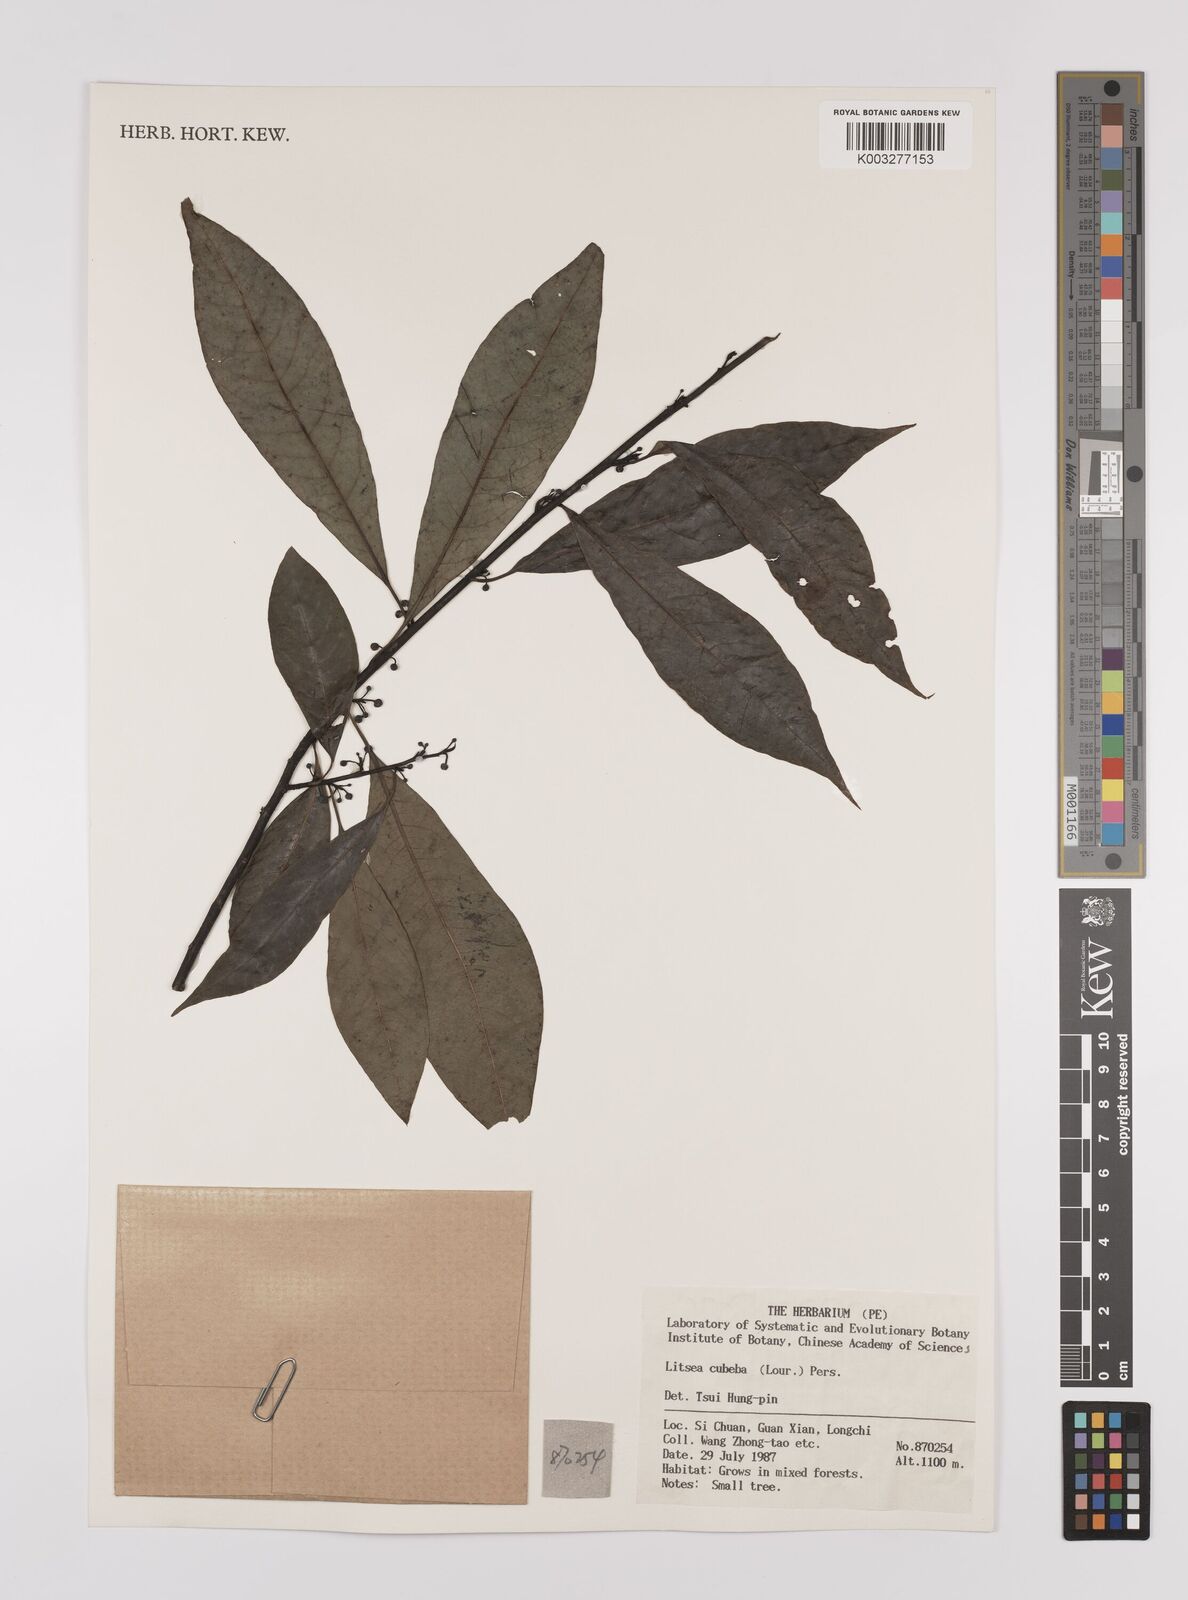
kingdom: Plantae
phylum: Tracheophyta
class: Magnoliopsida
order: Laurales
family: Lauraceae
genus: Litsea
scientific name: Litsea cubeba
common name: Mountain-pepper
